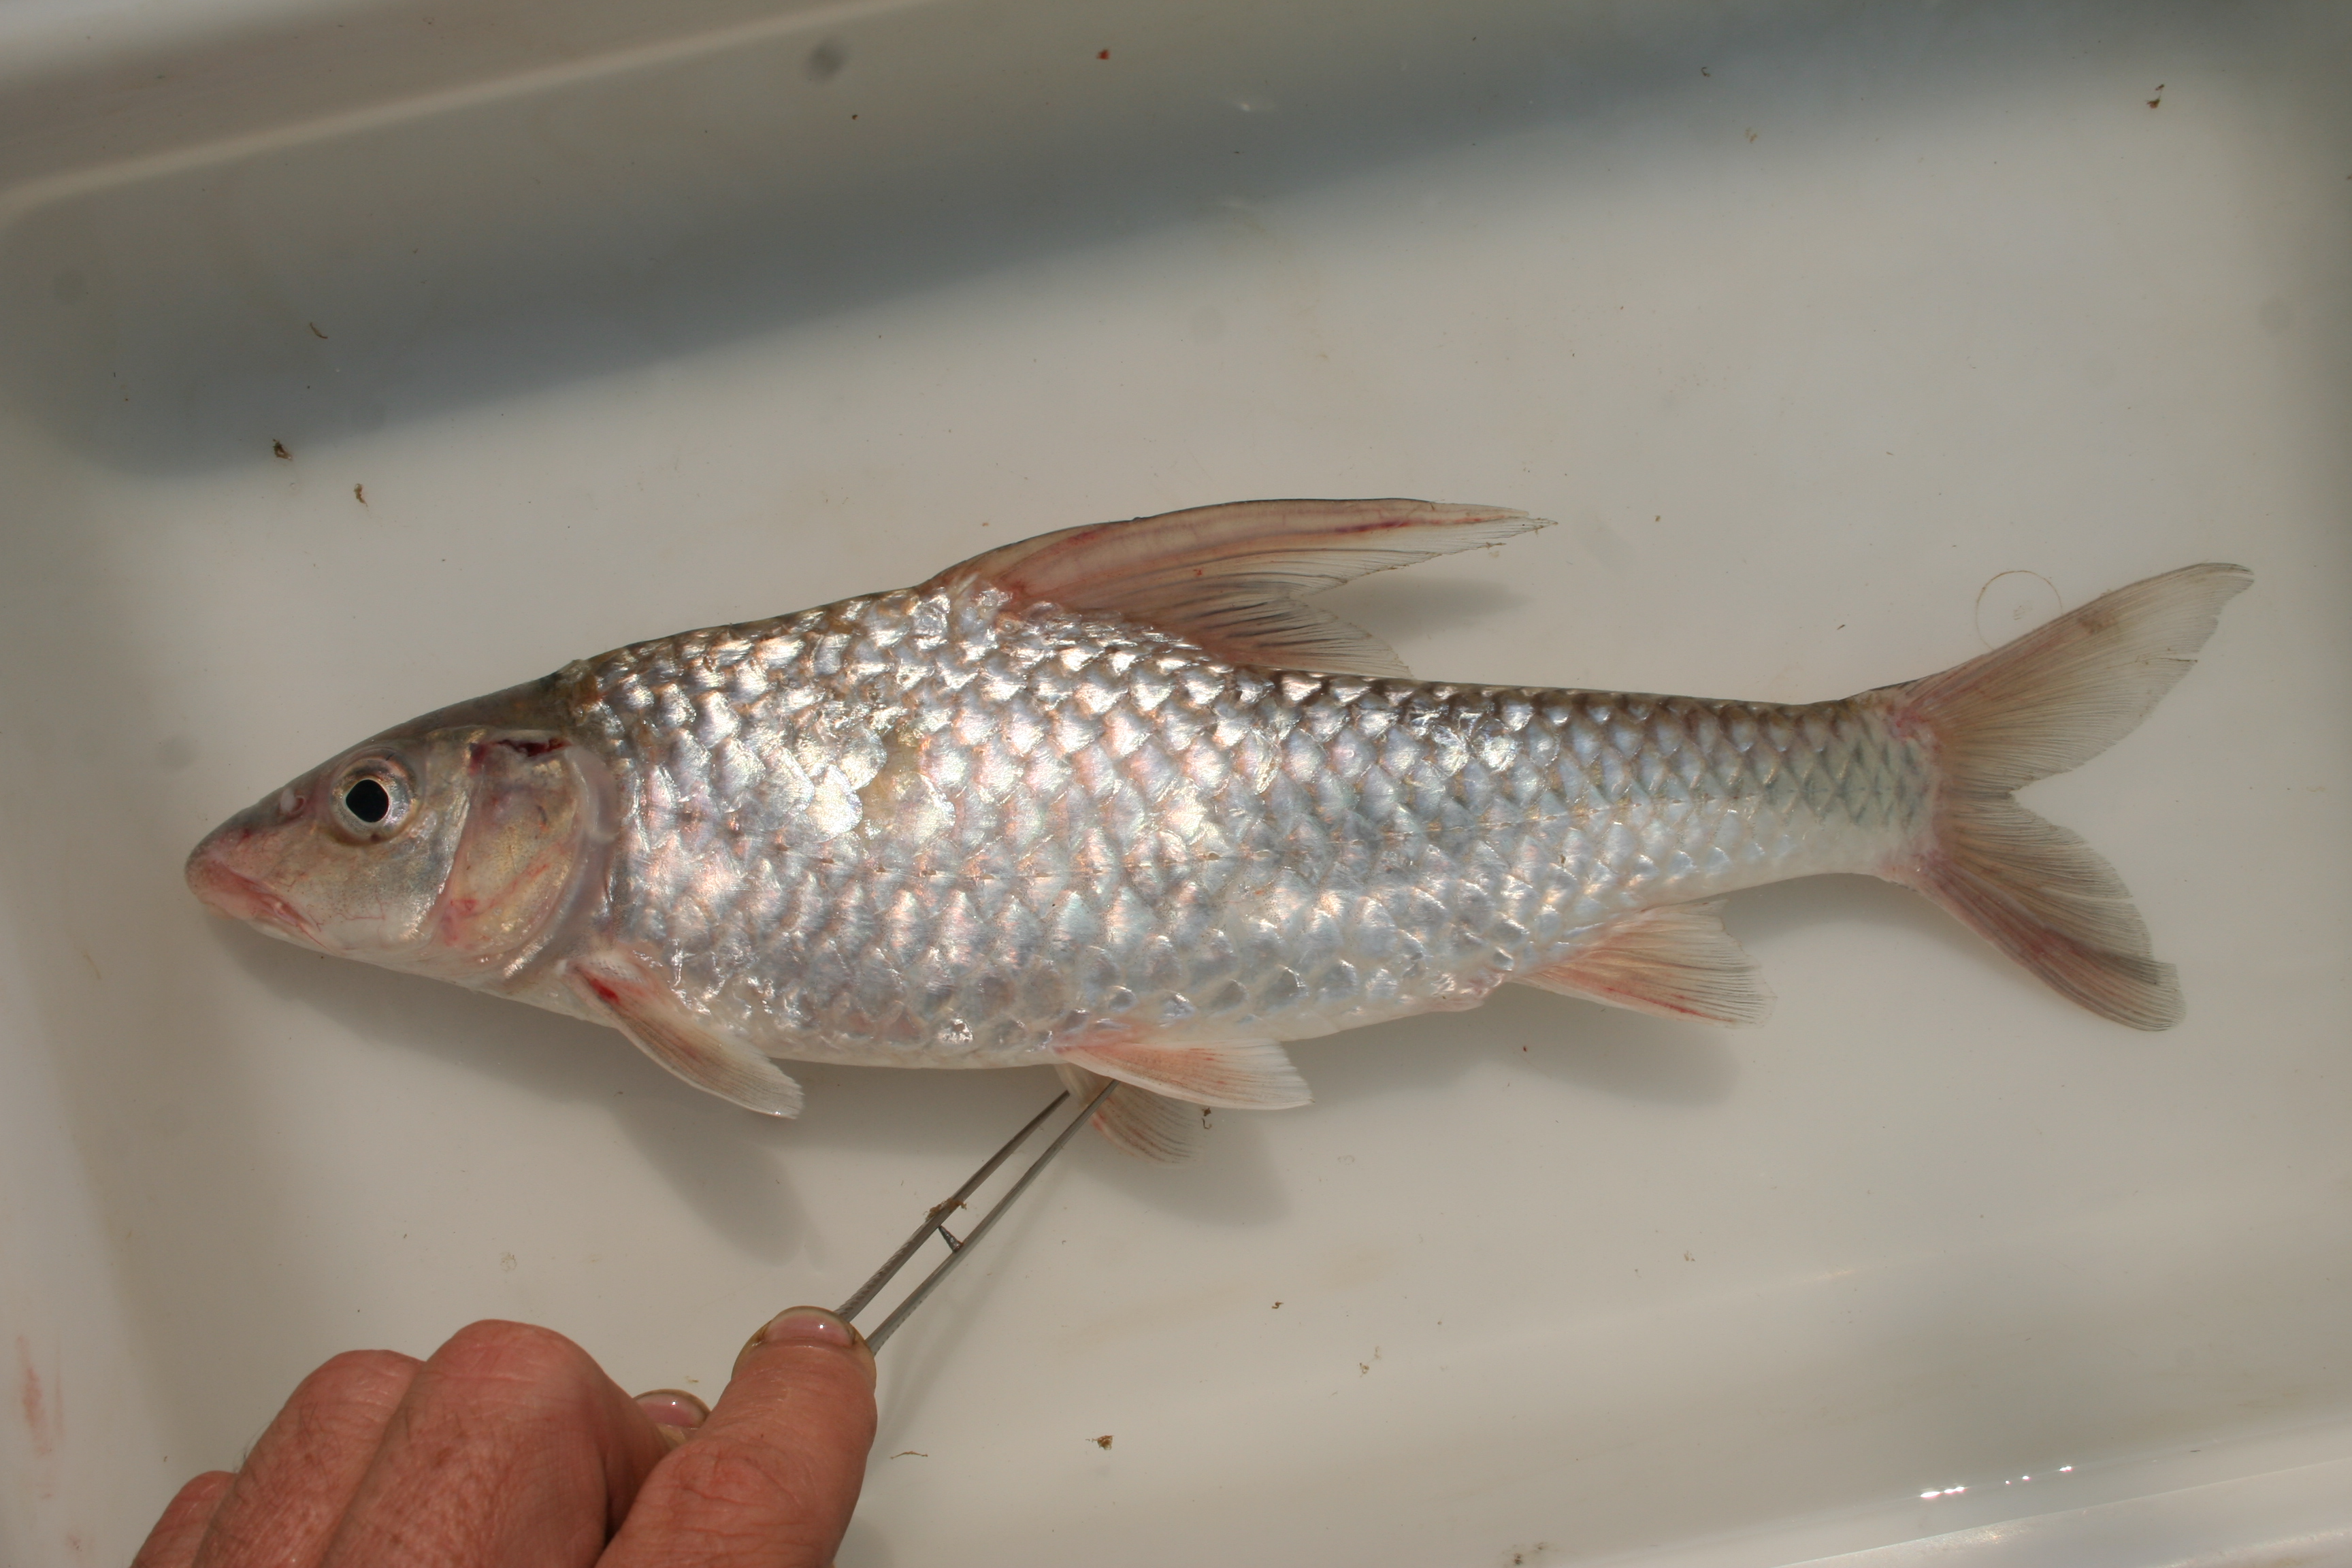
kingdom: Animalia
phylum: Chordata
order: Cypriniformes
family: Cyprinidae
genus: Labeobarbus
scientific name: Labeobarbus
